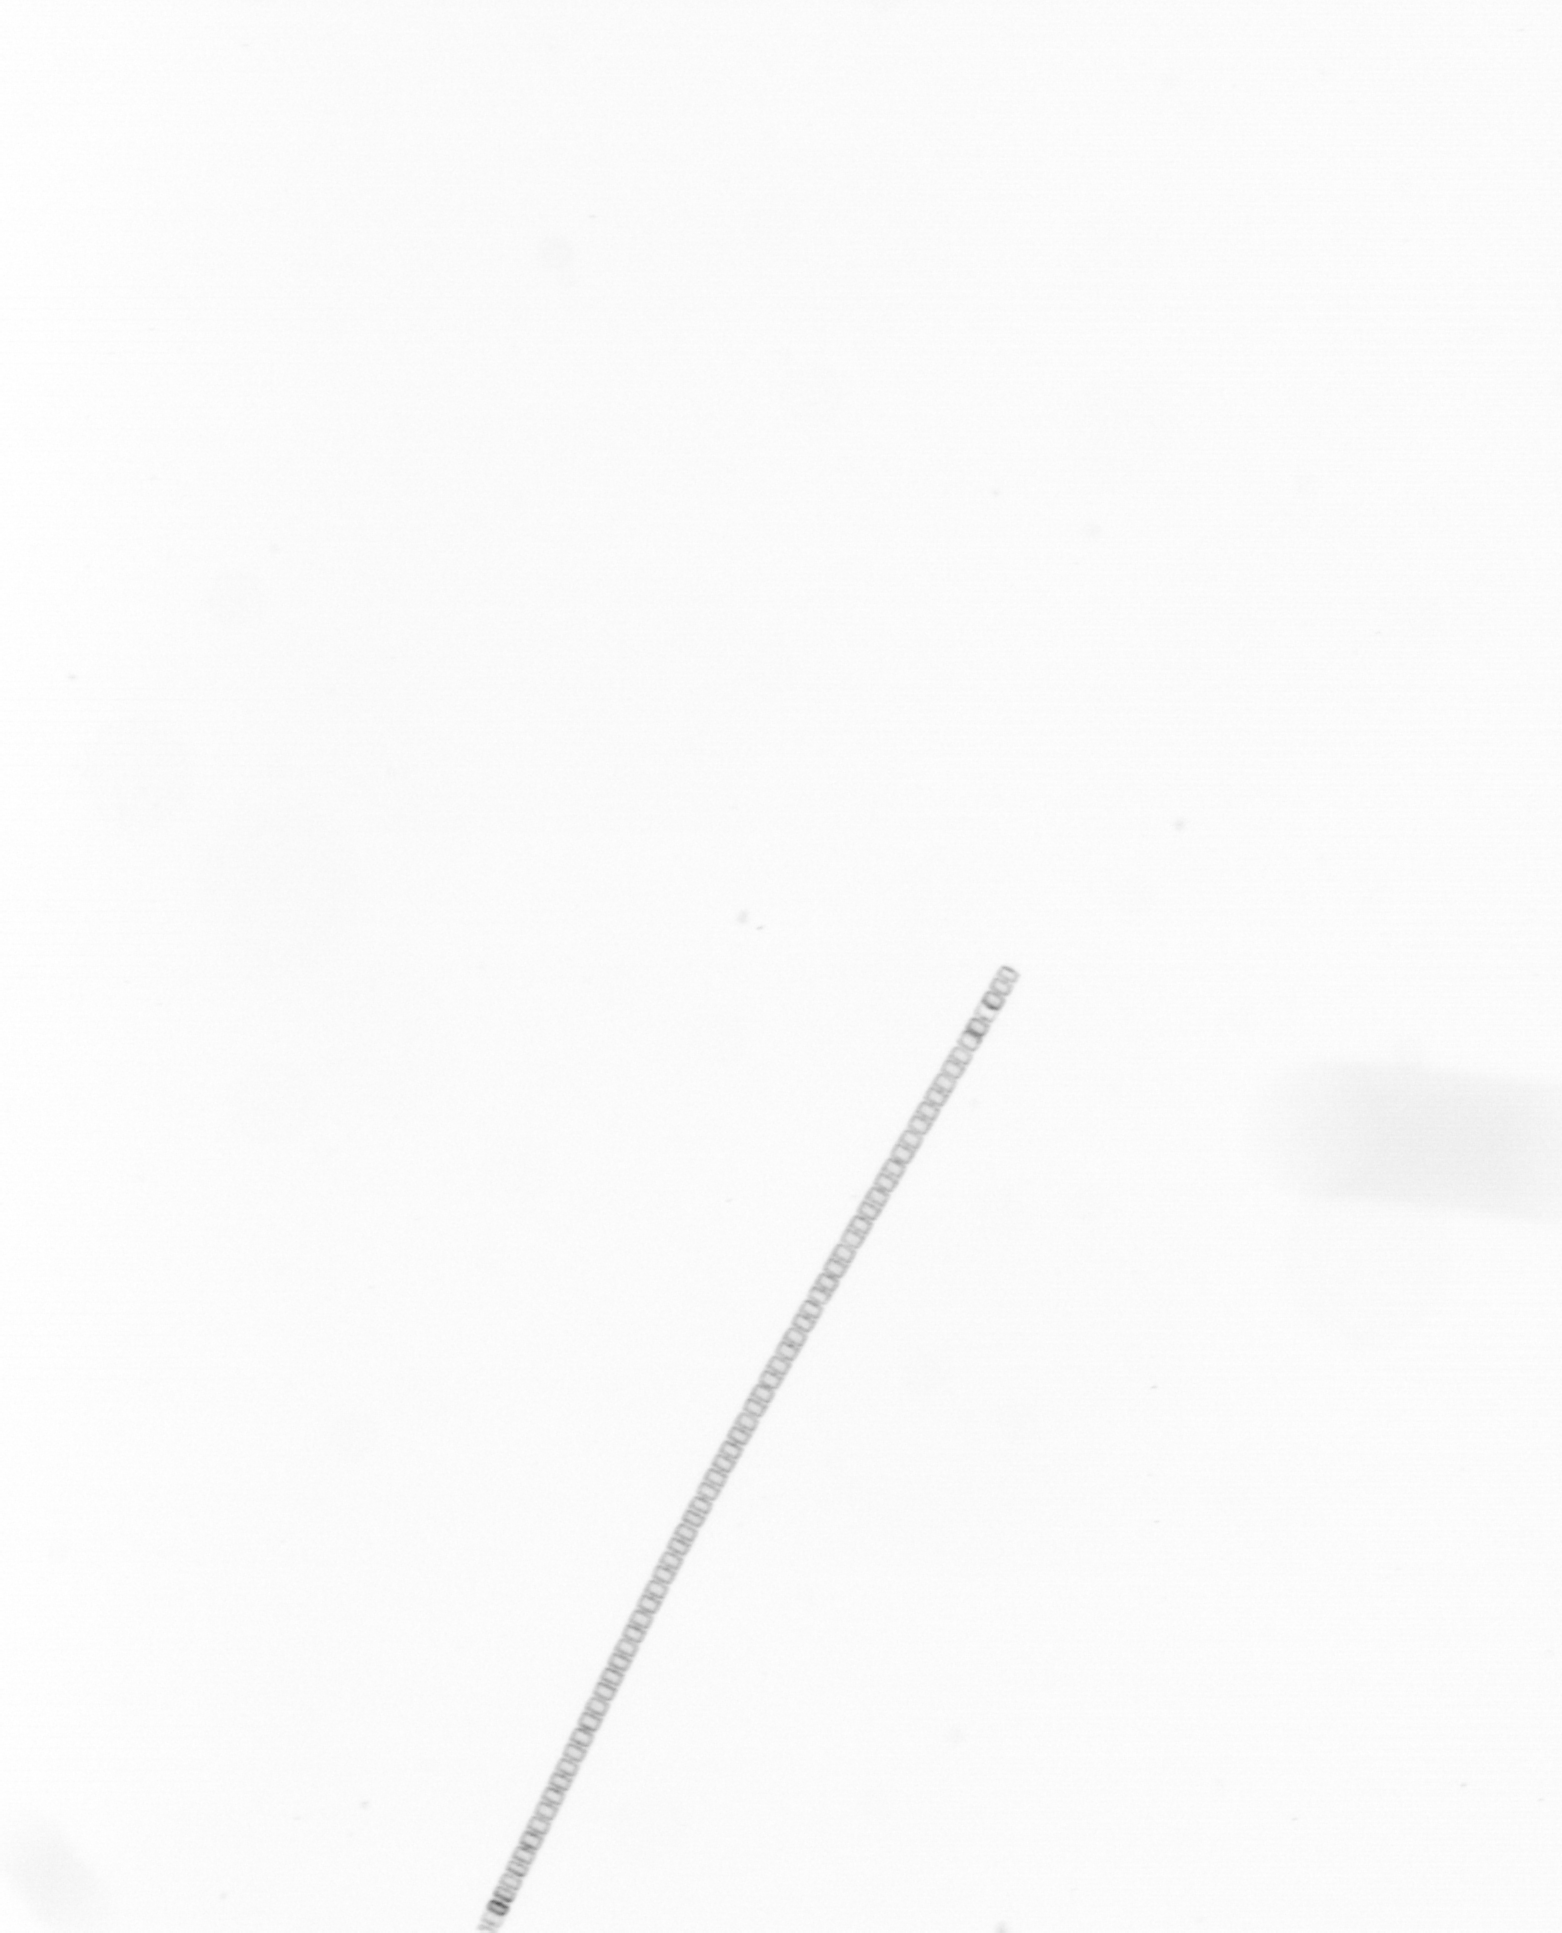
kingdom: Chromista
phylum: Ochrophyta
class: Bacillariophyceae
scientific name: Bacillariophyceae
